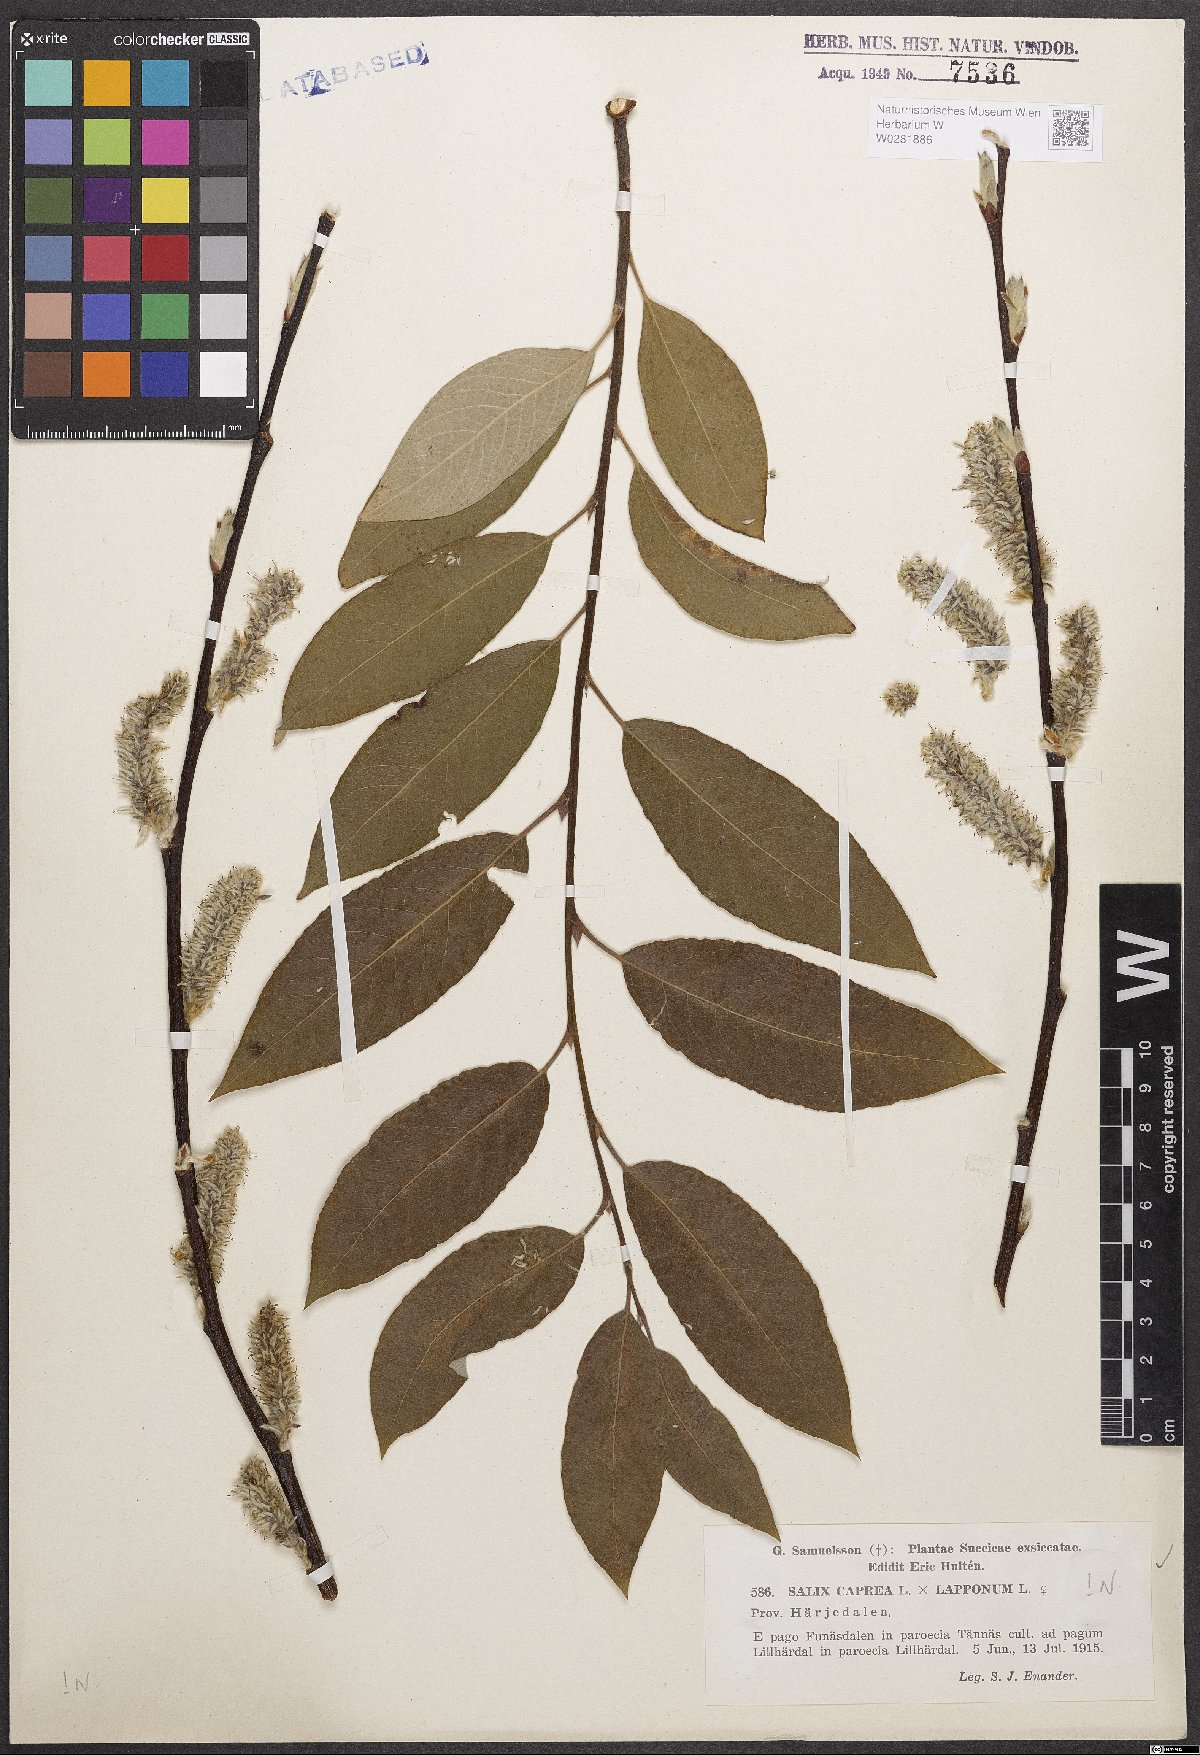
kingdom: Plantae
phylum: Tracheophyta
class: Magnoliopsida
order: Malpighiales
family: Salicaceae
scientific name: Salicaceae
